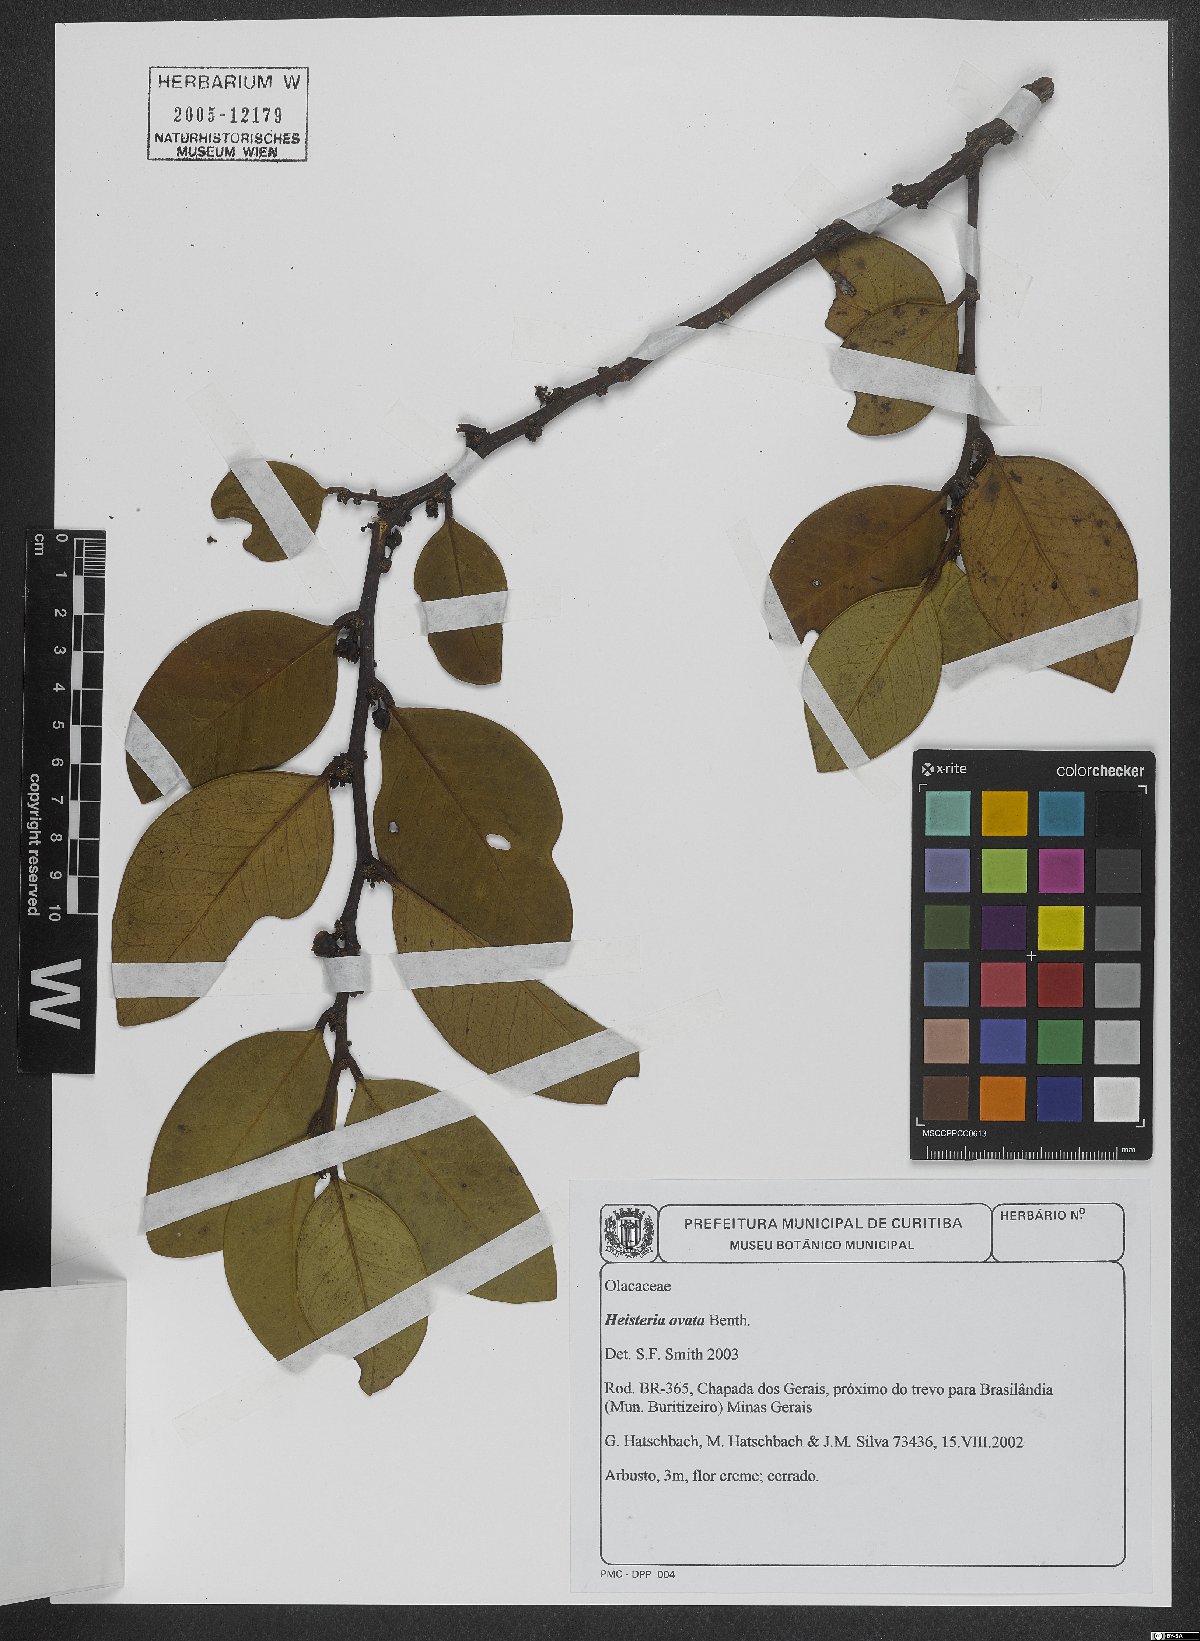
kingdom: Plantae
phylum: Tracheophyta
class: Magnoliopsida
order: Santalales
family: Erythropalaceae
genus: Heisteria
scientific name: Heisteria ovata
